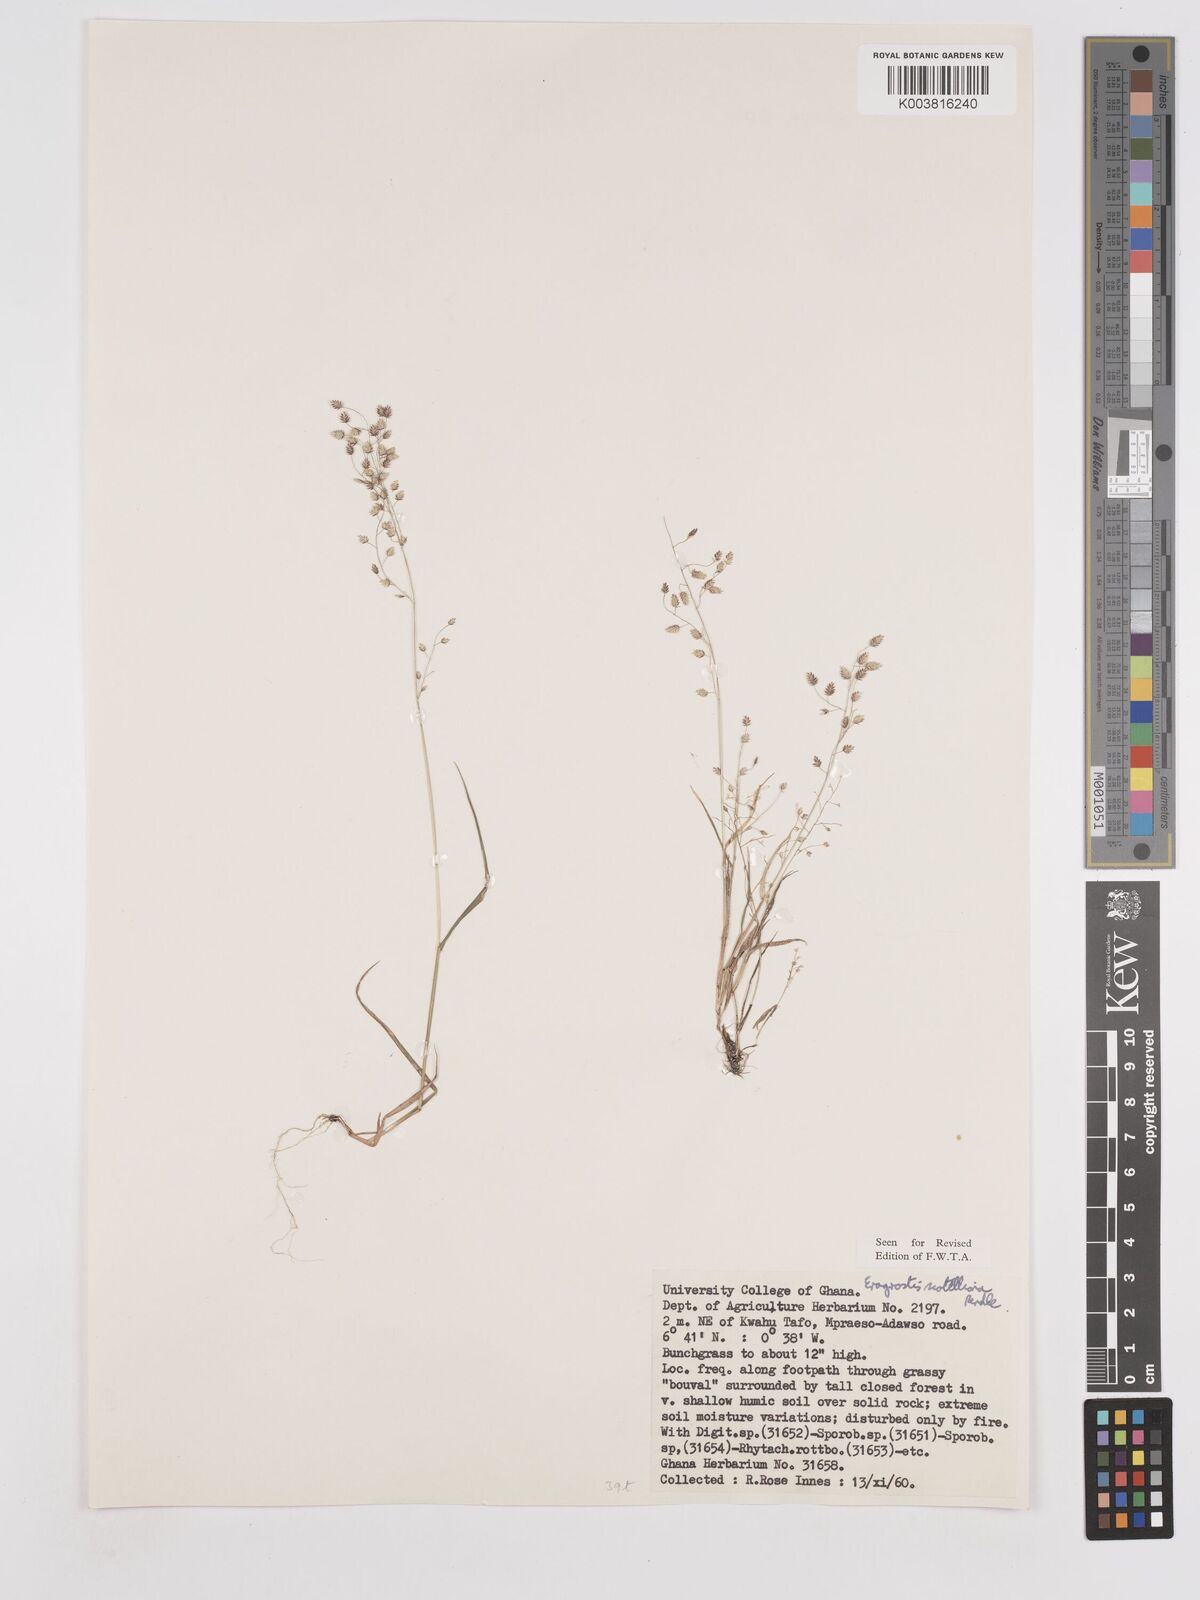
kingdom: Plantae
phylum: Tracheophyta
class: Liliopsida
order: Poales
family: Poaceae
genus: Eragrostis
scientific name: Eragrostis scotelliana
